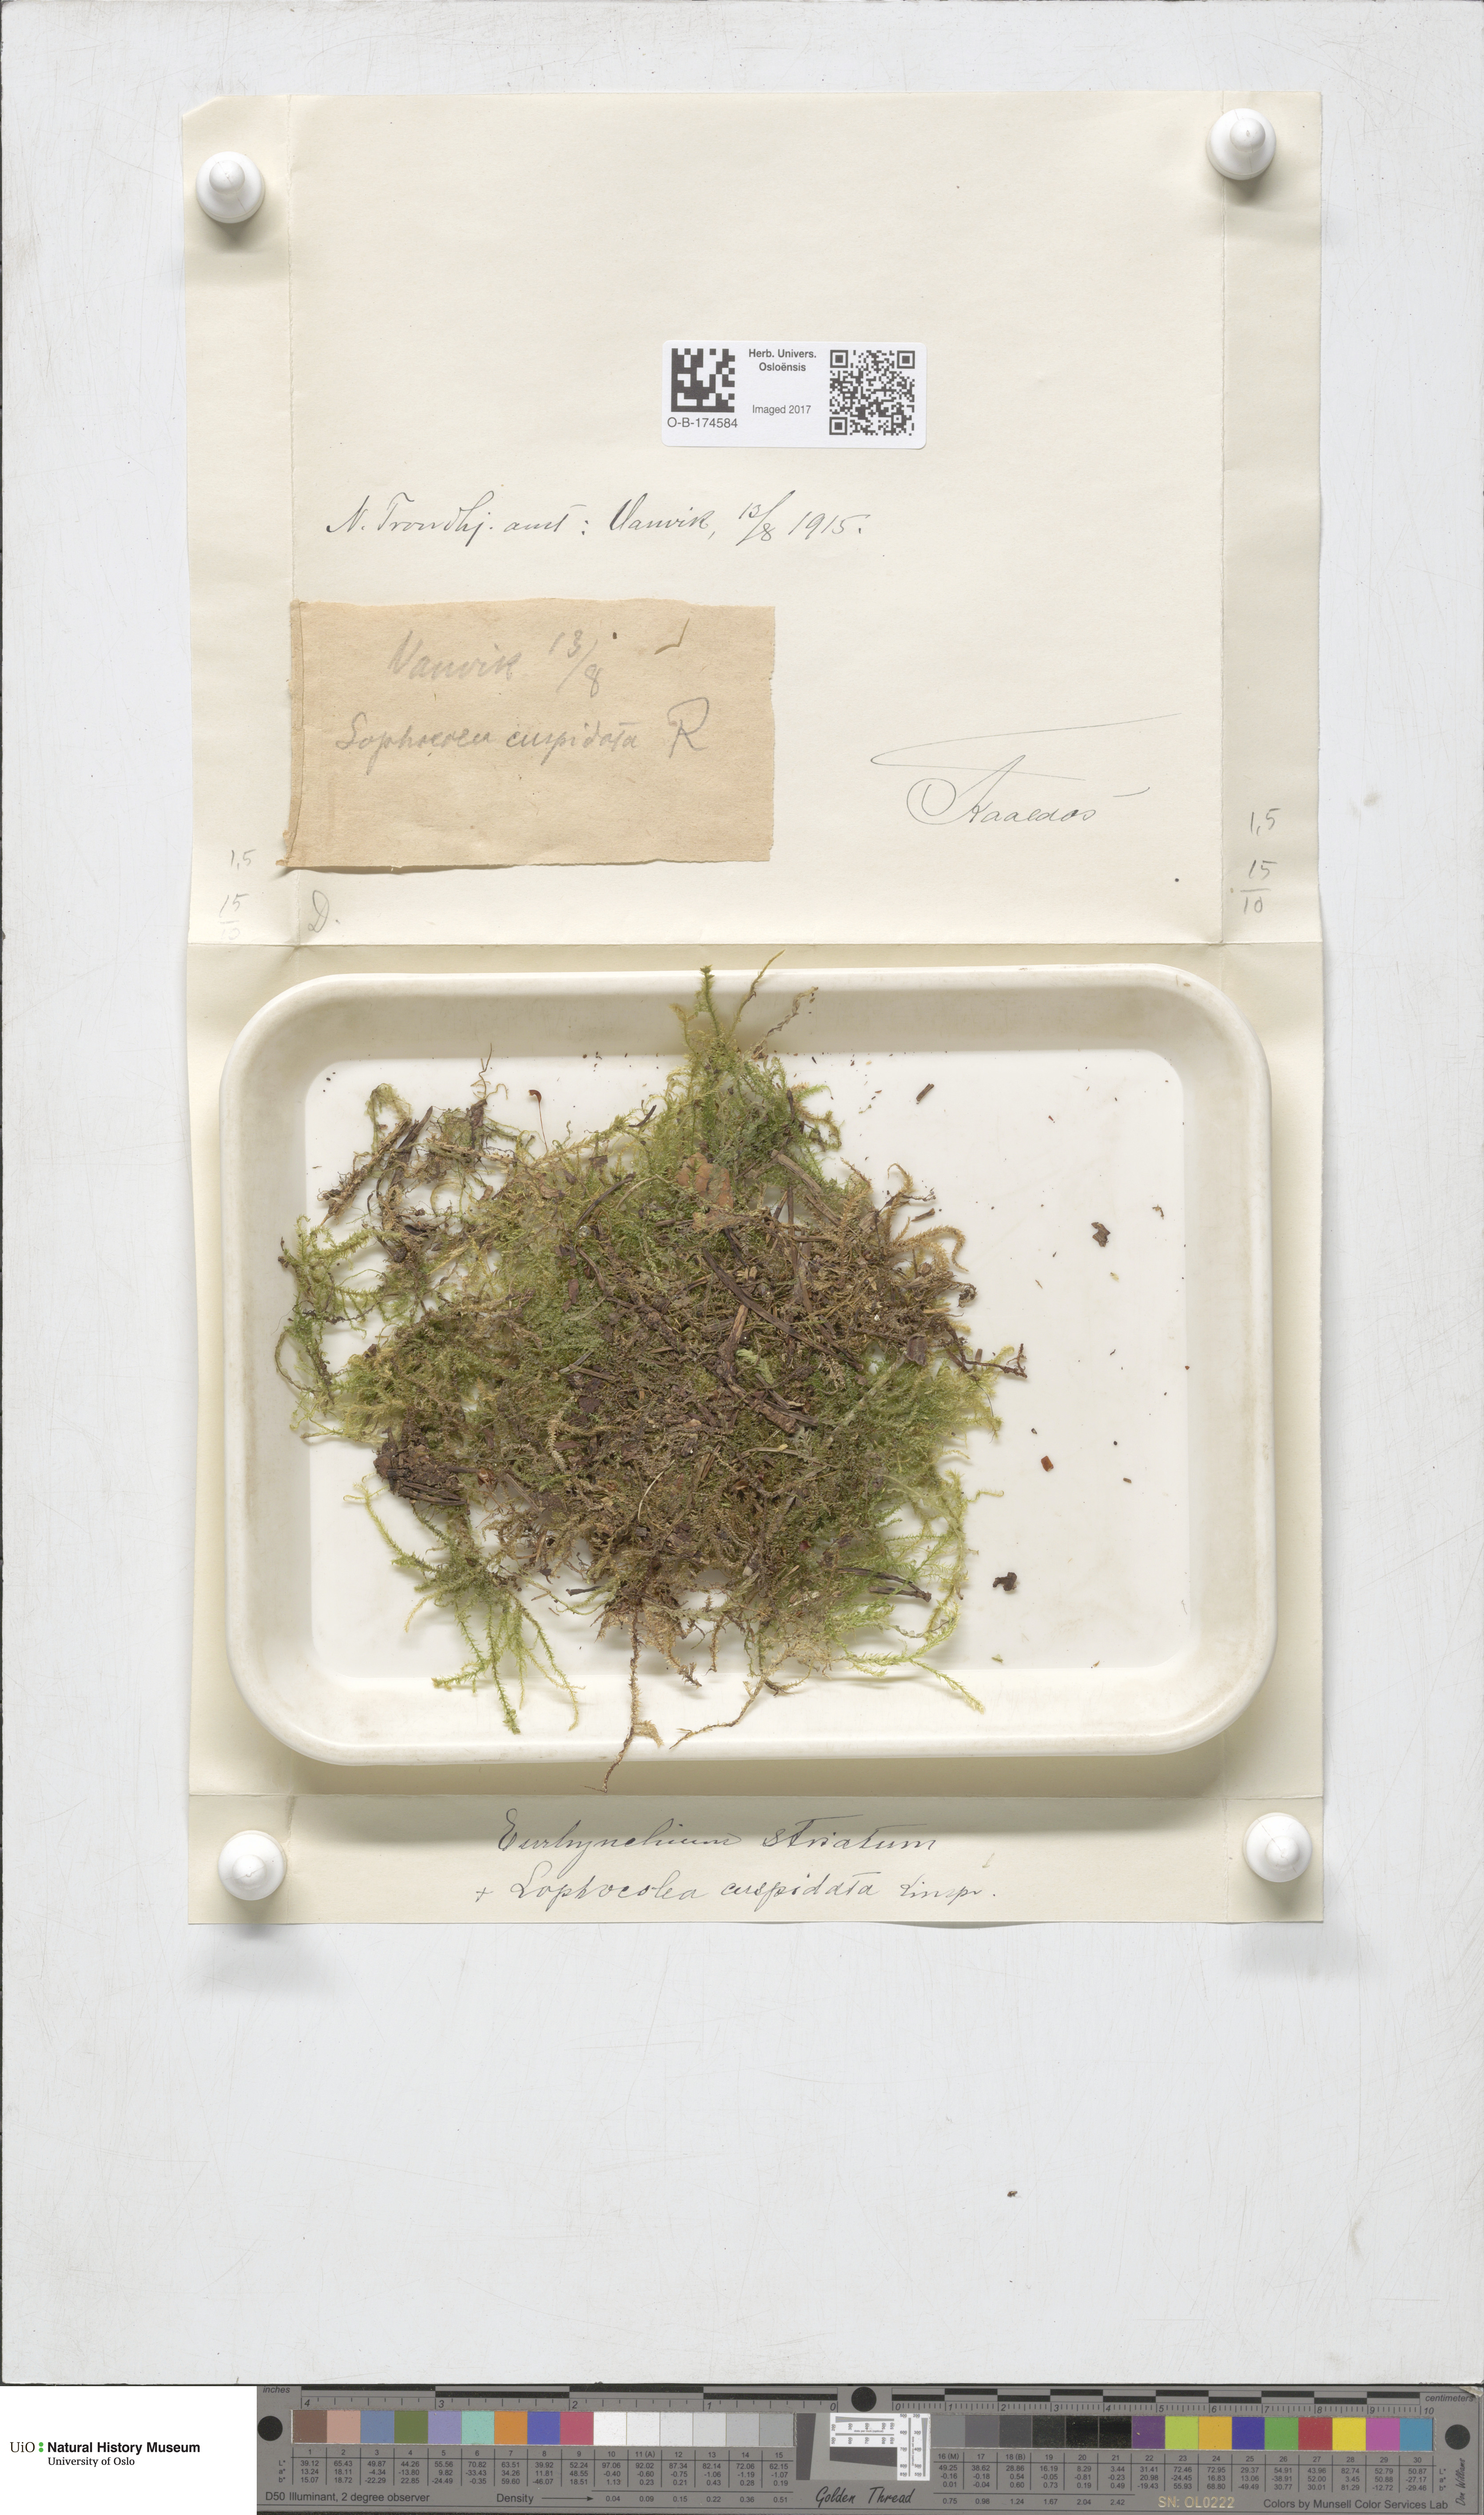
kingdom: Plantae
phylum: Bryophyta
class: Bryopsida
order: Hypnales
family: Brachytheciaceae
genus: Eurhynchium
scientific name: Eurhynchium striatum
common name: Common striated feather-moss
